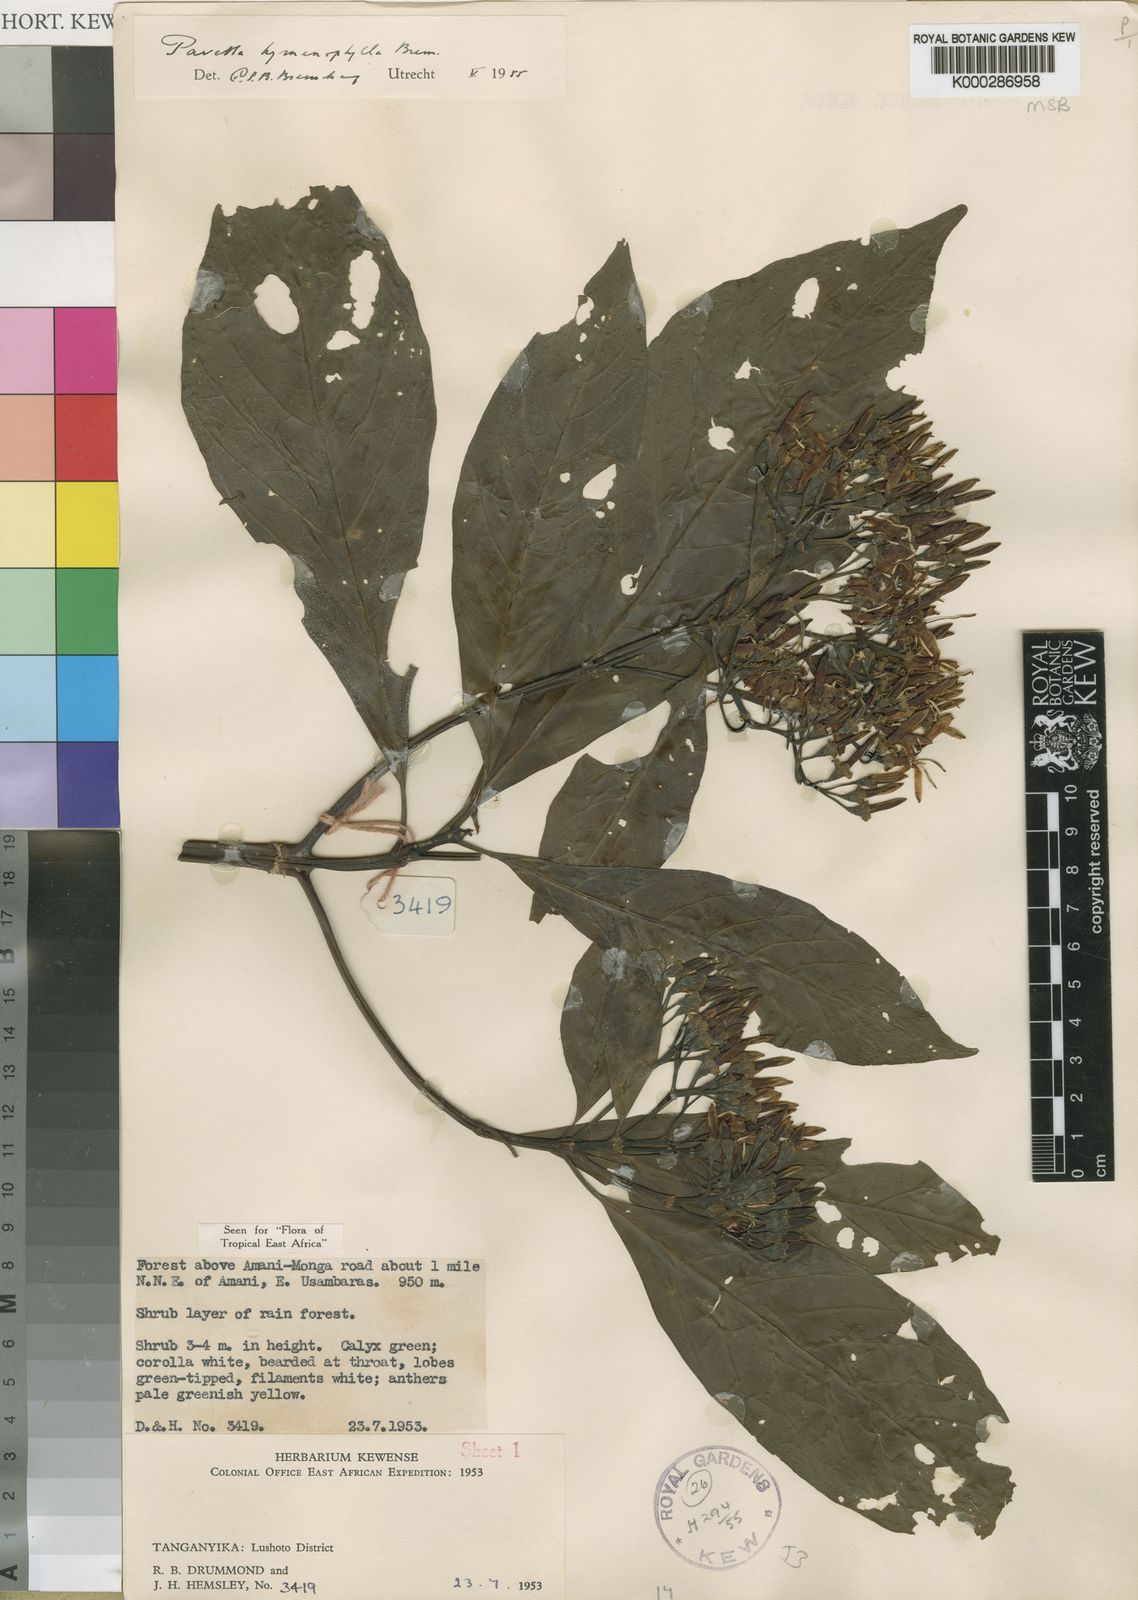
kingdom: Plantae
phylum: Tracheophyta
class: Magnoliopsida
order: Gentianales
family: Rubiaceae
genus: Pavetta
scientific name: Pavetta hymenophylla
